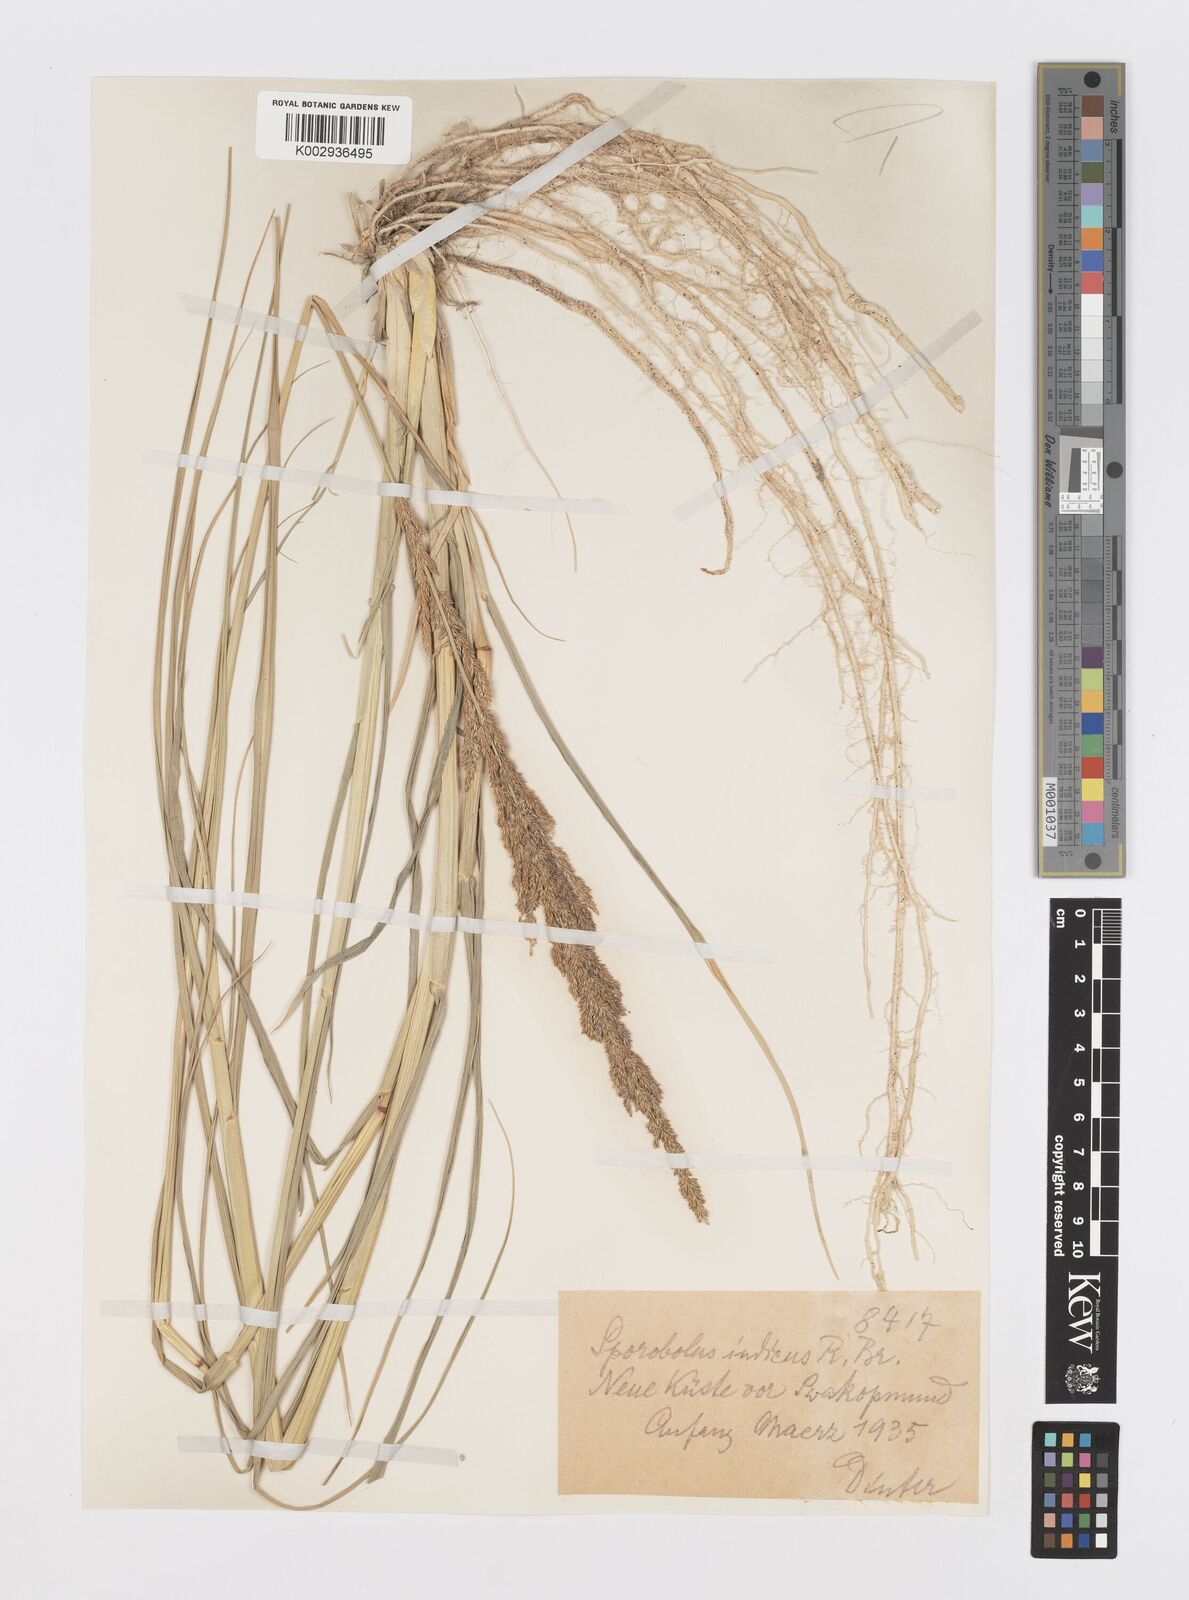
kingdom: Plantae
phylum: Tracheophyta
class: Liliopsida
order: Poales
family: Poaceae
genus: Sporobolus
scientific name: Sporobolus consimilis
